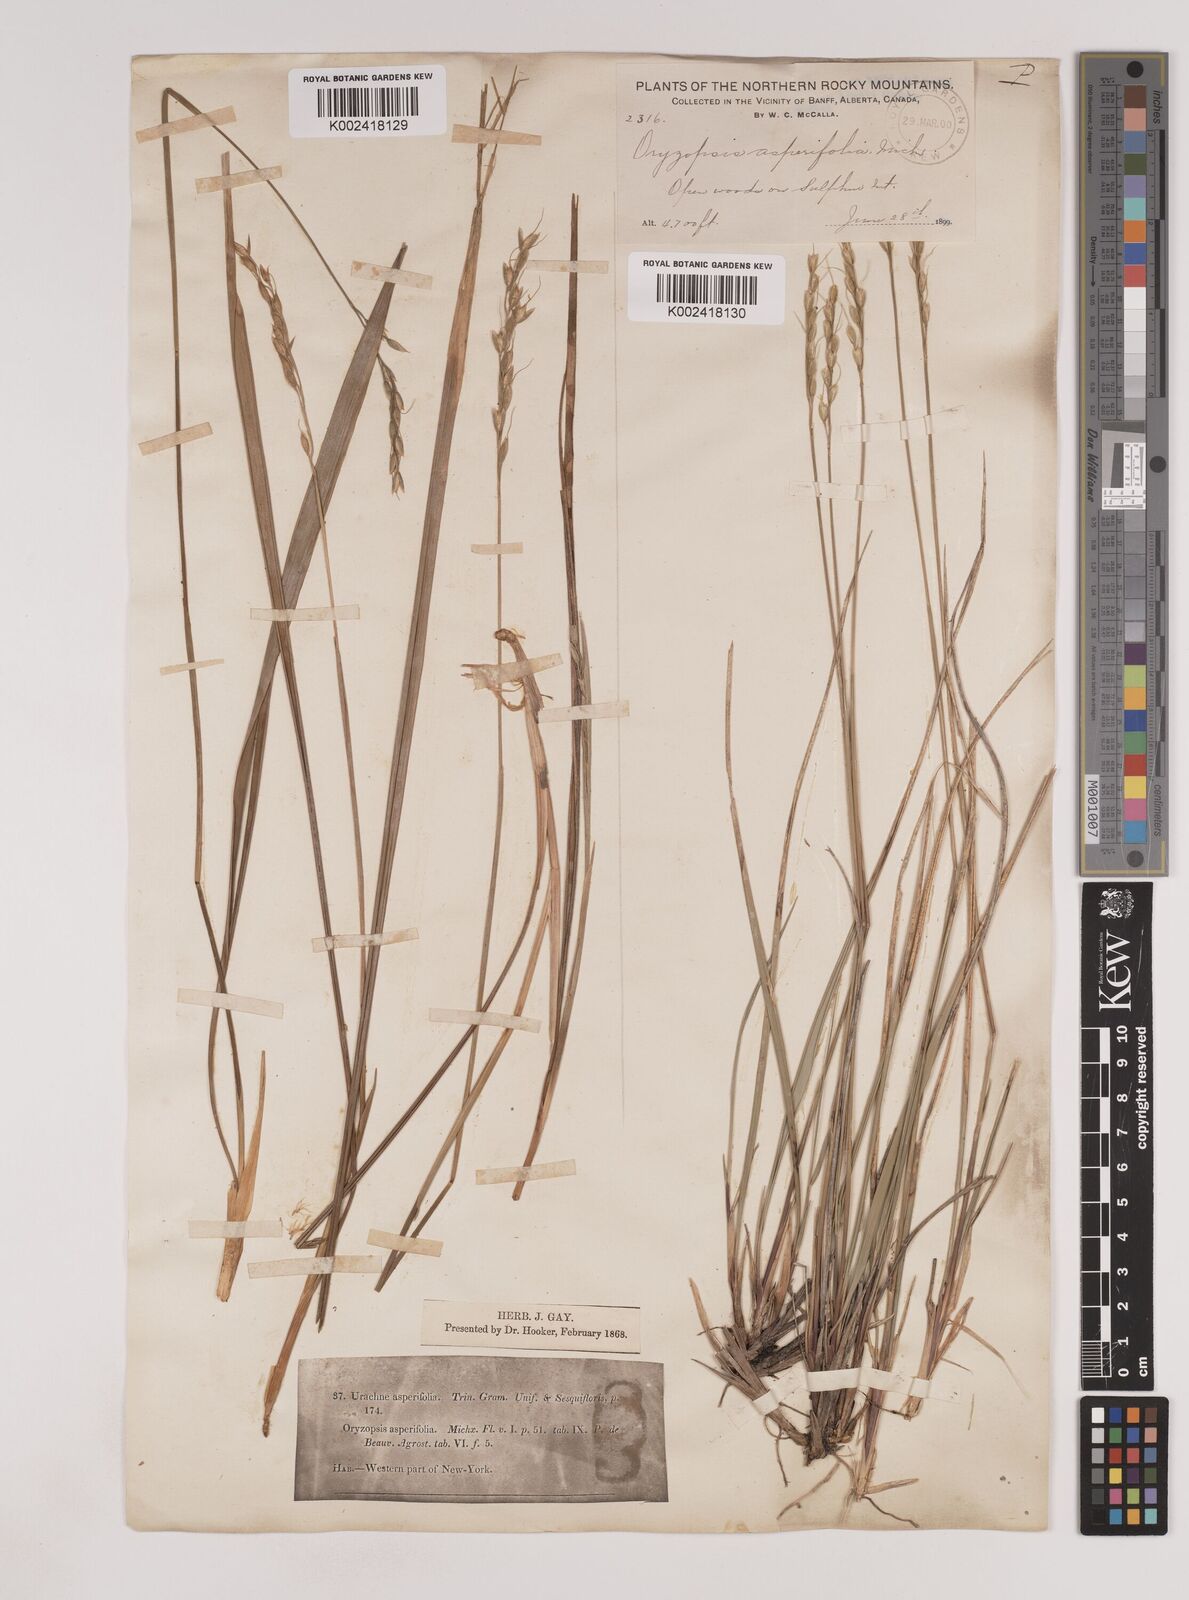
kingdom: Plantae
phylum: Tracheophyta
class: Liliopsida
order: Poales
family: Poaceae
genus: Oryzopsis
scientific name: Oryzopsis asperifolia
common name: Rough-leaved mountain rice
